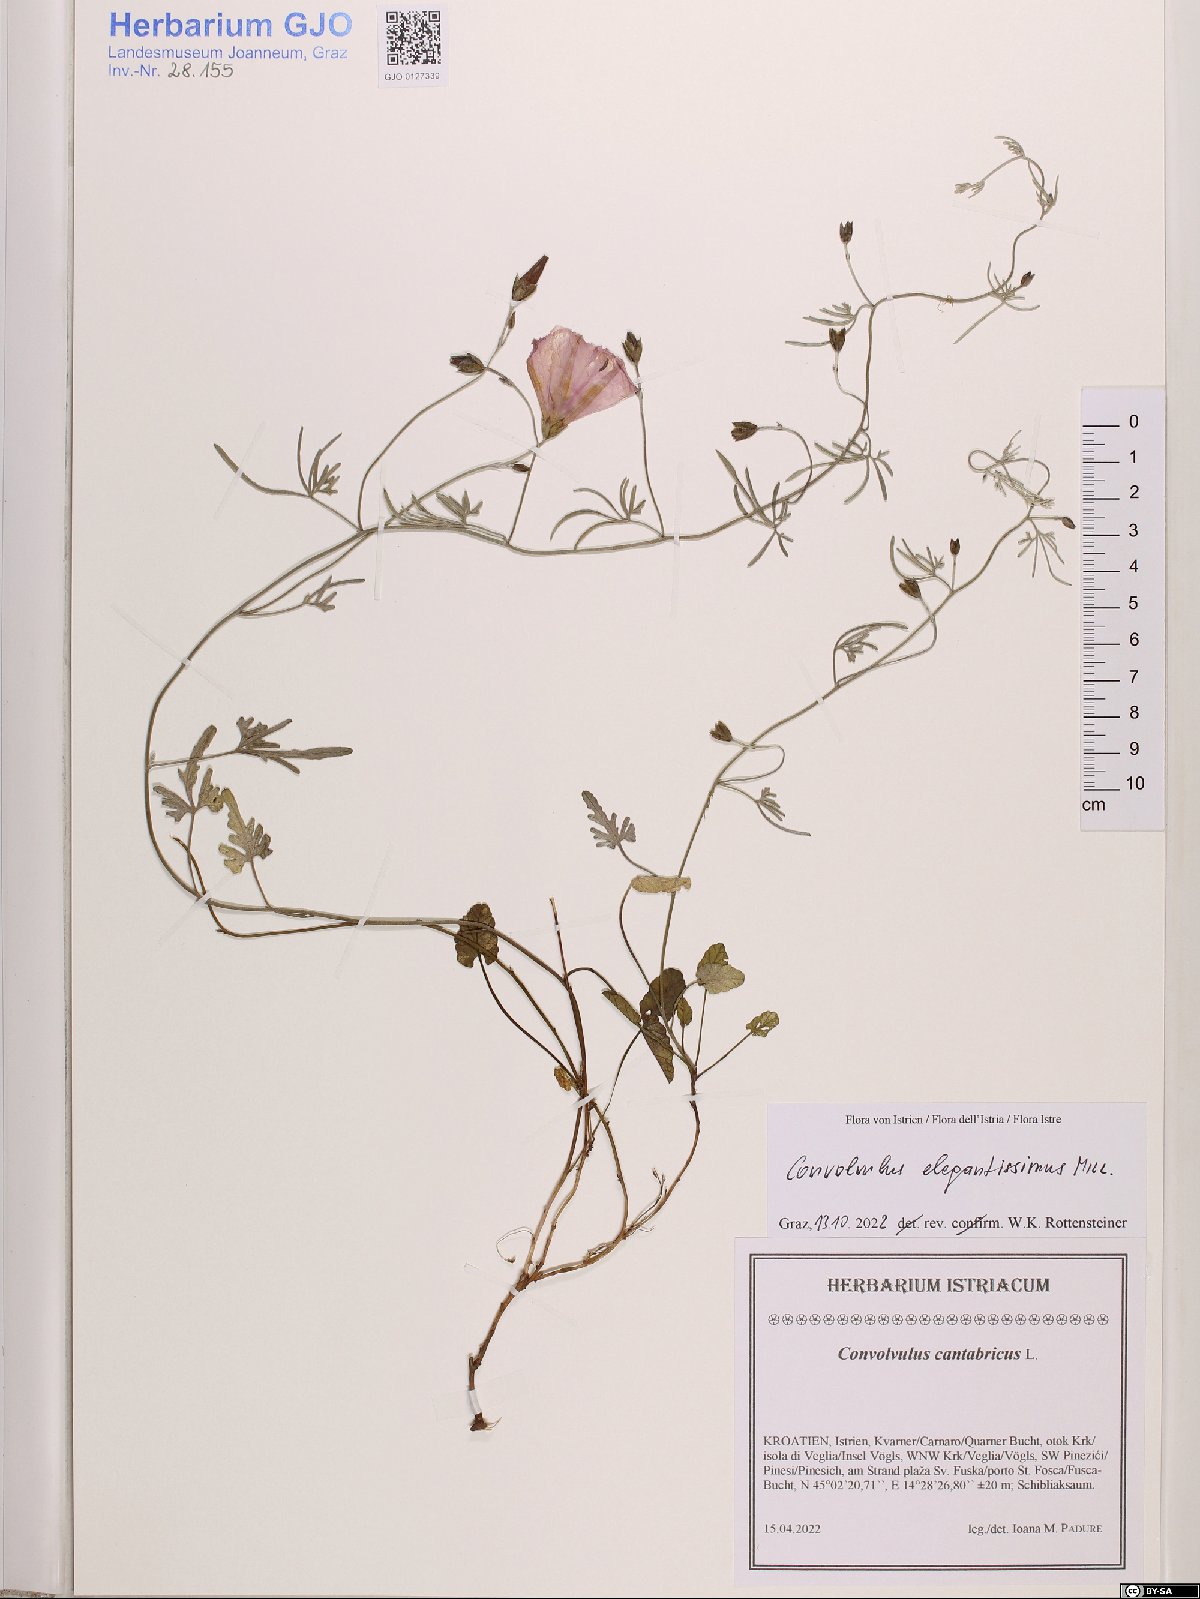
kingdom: Plantae
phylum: Tracheophyta
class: Magnoliopsida
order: Solanales
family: Convolvulaceae
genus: Convolvulus
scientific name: Convolvulus elegantissimus
